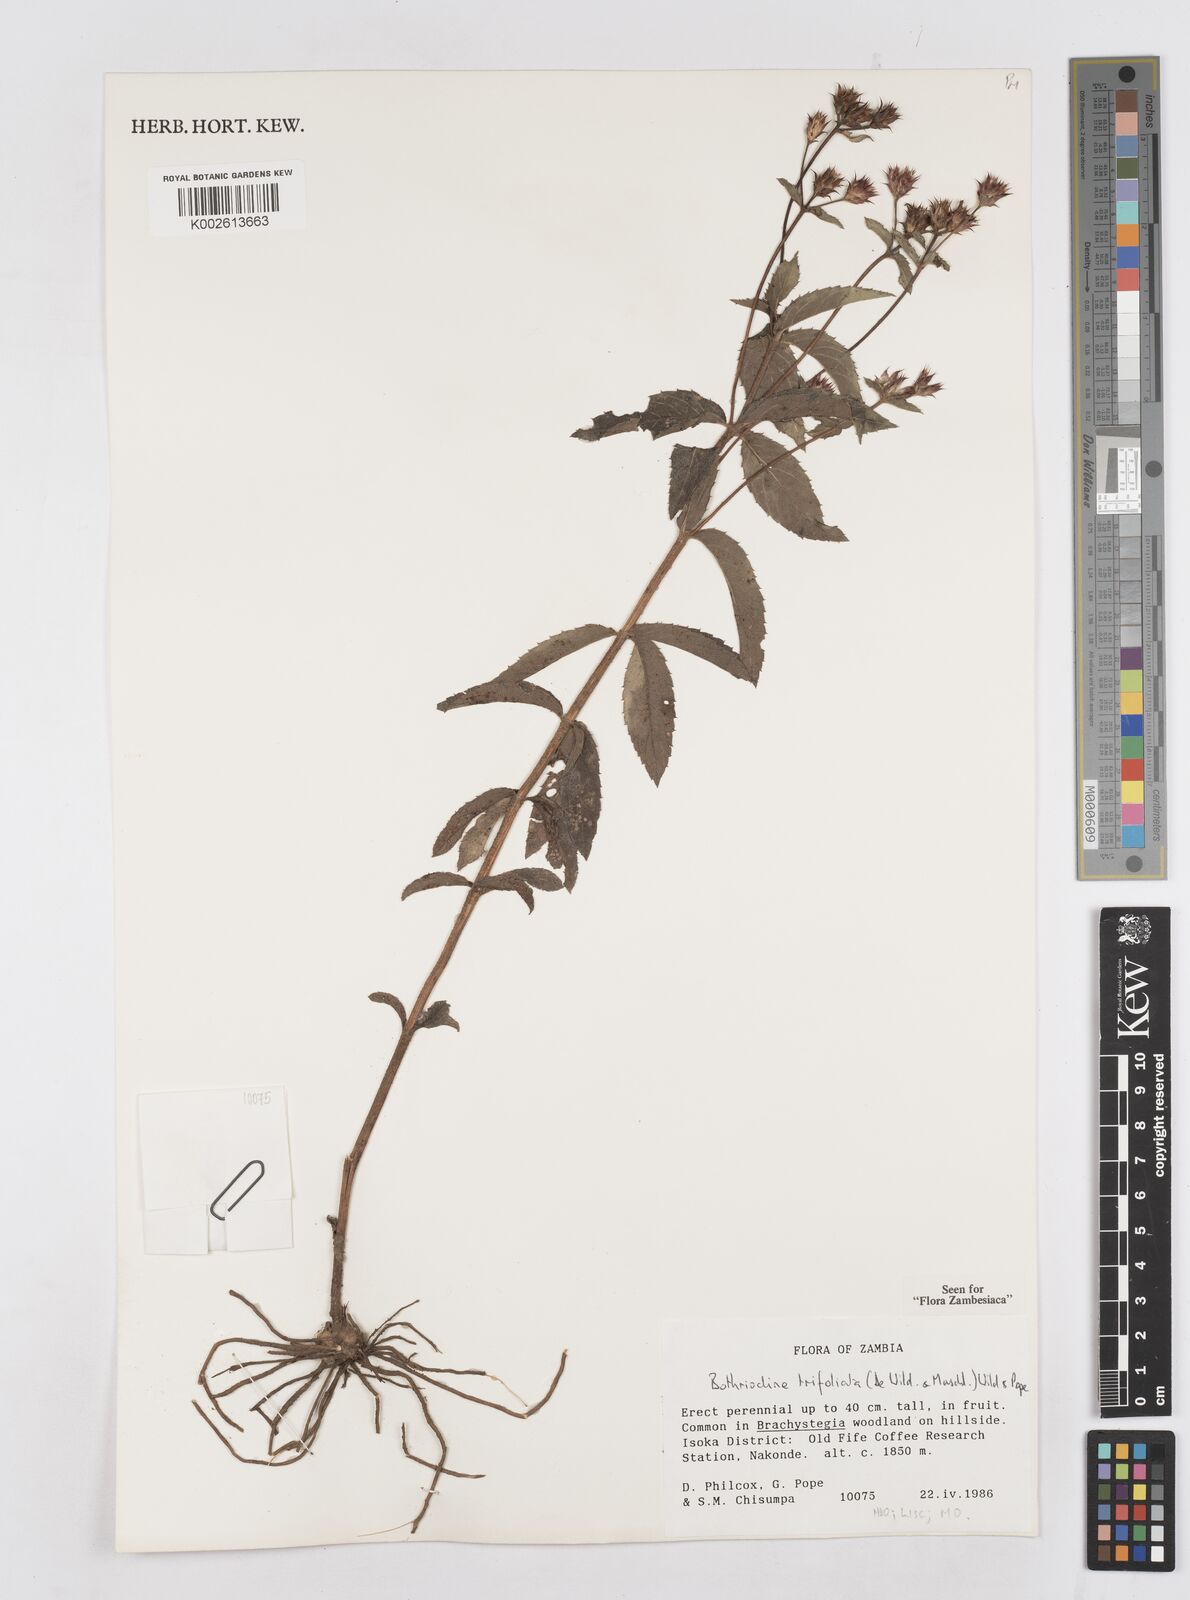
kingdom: Plantae
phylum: Tracheophyta
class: Magnoliopsida
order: Asterales
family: Asteraceae
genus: Bothriocline
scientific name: Bothriocline trifoliata
